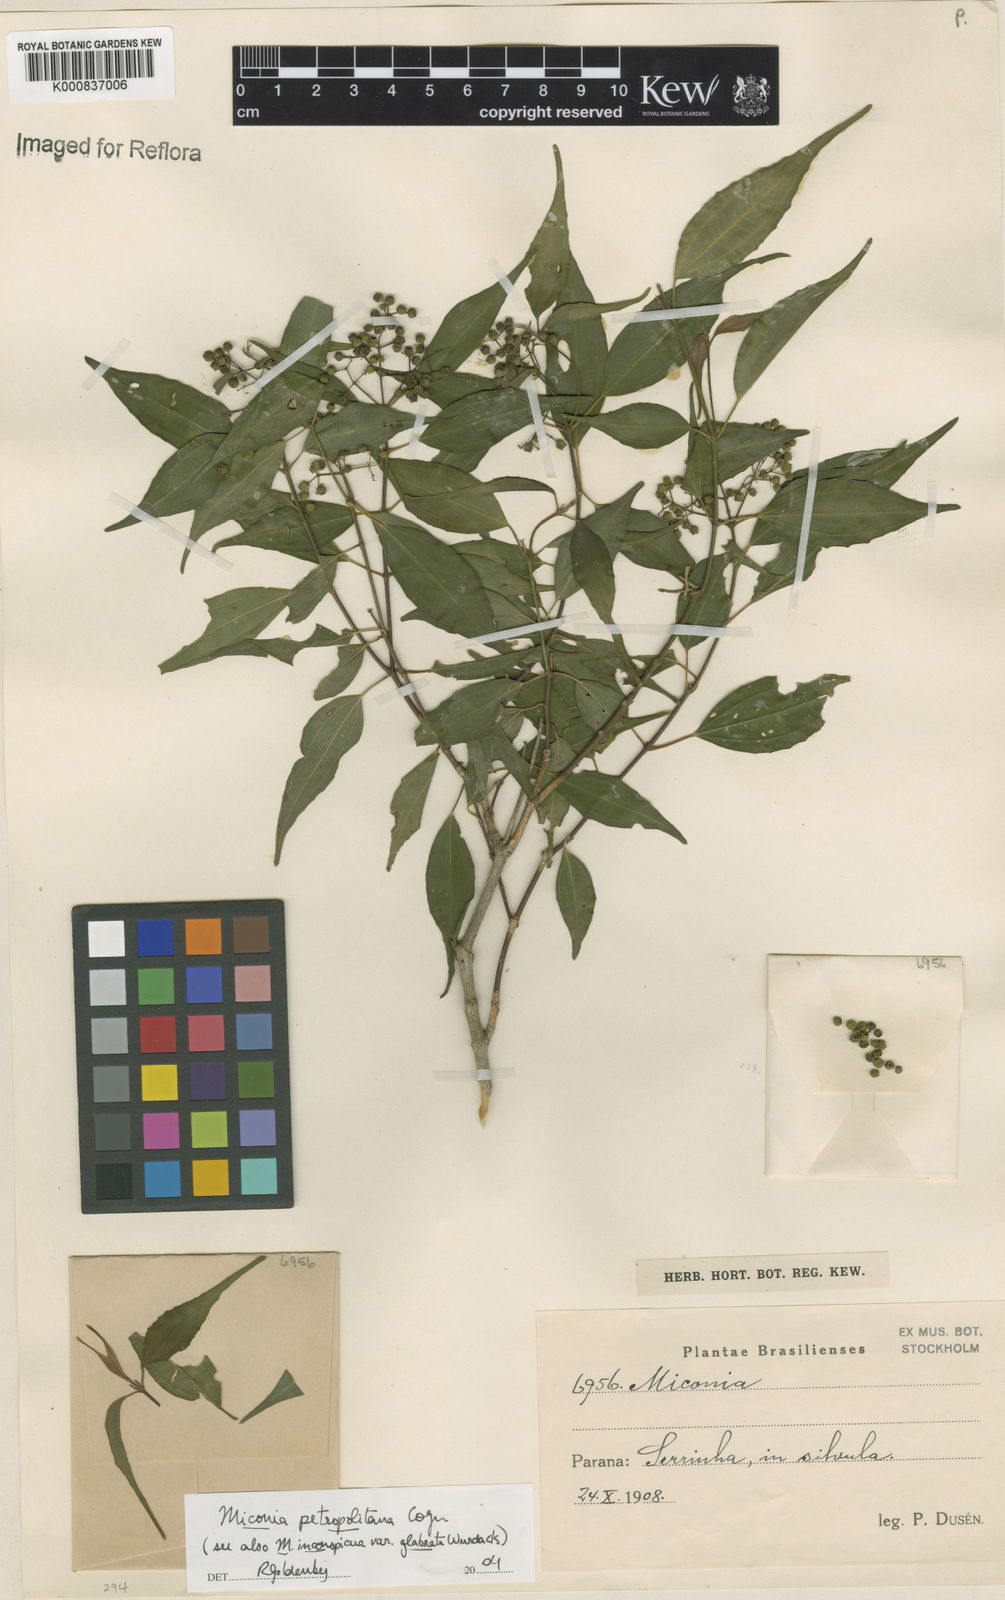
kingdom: Plantae
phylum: Tracheophyta
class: Magnoliopsida
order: Myrtales
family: Melastomataceae
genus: Miconia
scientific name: Miconia petropolitana
